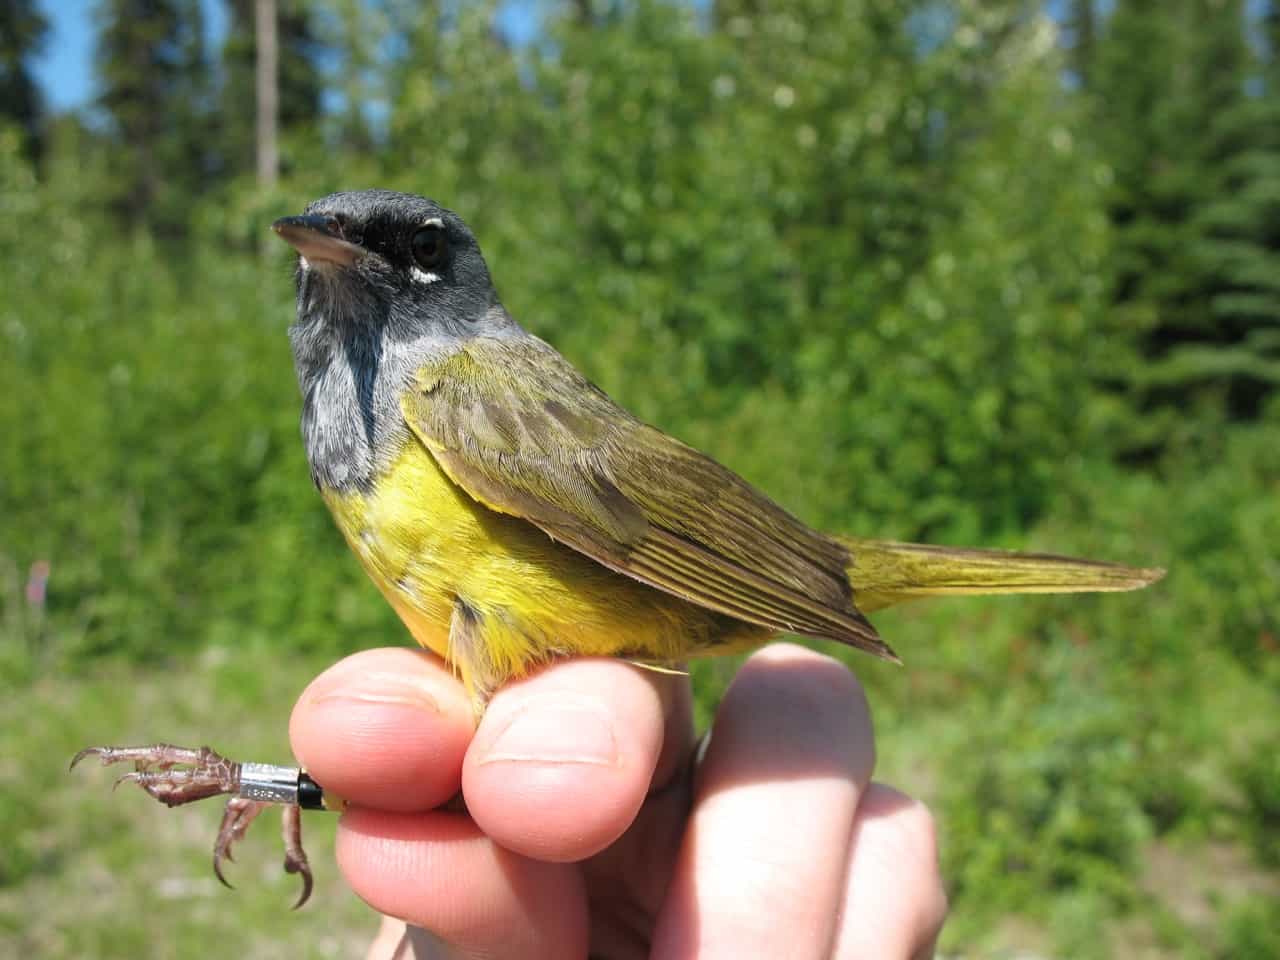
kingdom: Animalia
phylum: Chordata
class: Aves
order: Passeriformes
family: Parulidae
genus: Geothlypis
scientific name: Geothlypis tolmiei
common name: MacGillivray's Warbler
